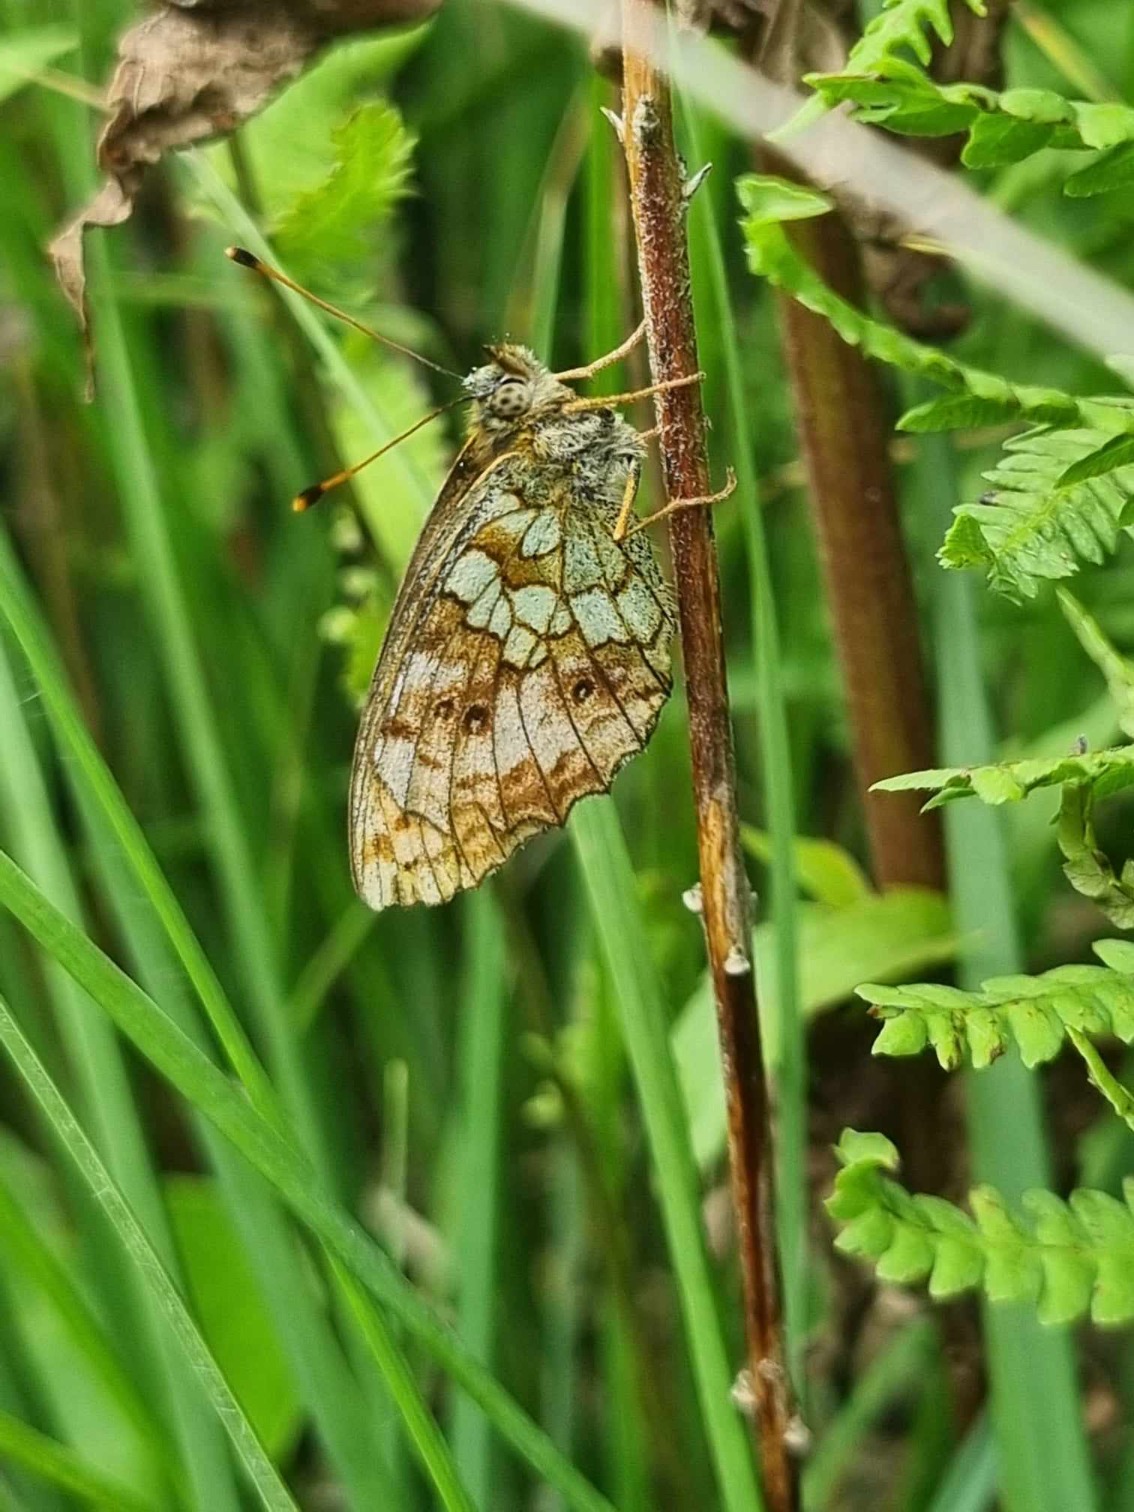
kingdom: Animalia
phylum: Arthropoda
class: Insecta
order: Lepidoptera
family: Nymphalidae
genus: Brenthis
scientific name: Brenthis ino
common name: Engperlemorsommerfugl
